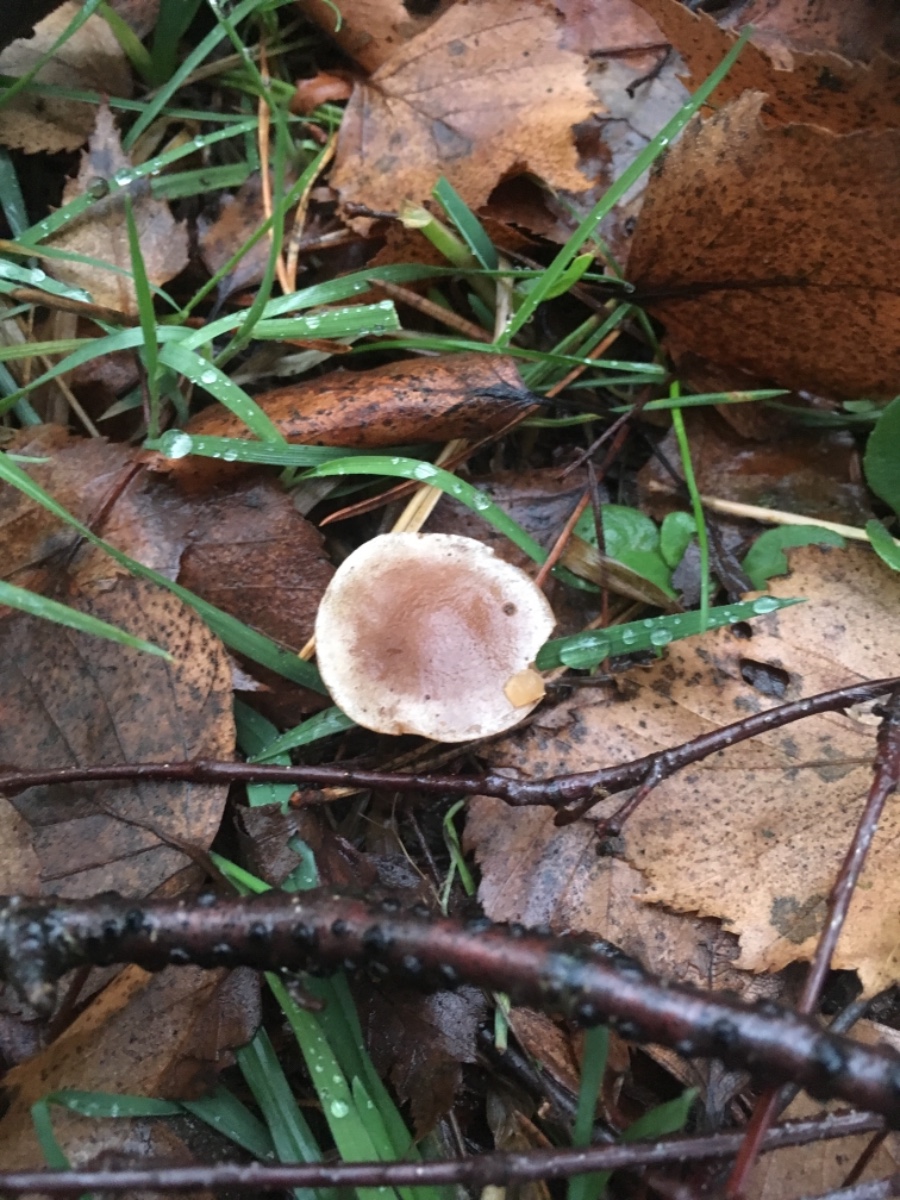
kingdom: Fungi
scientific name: Fungi
